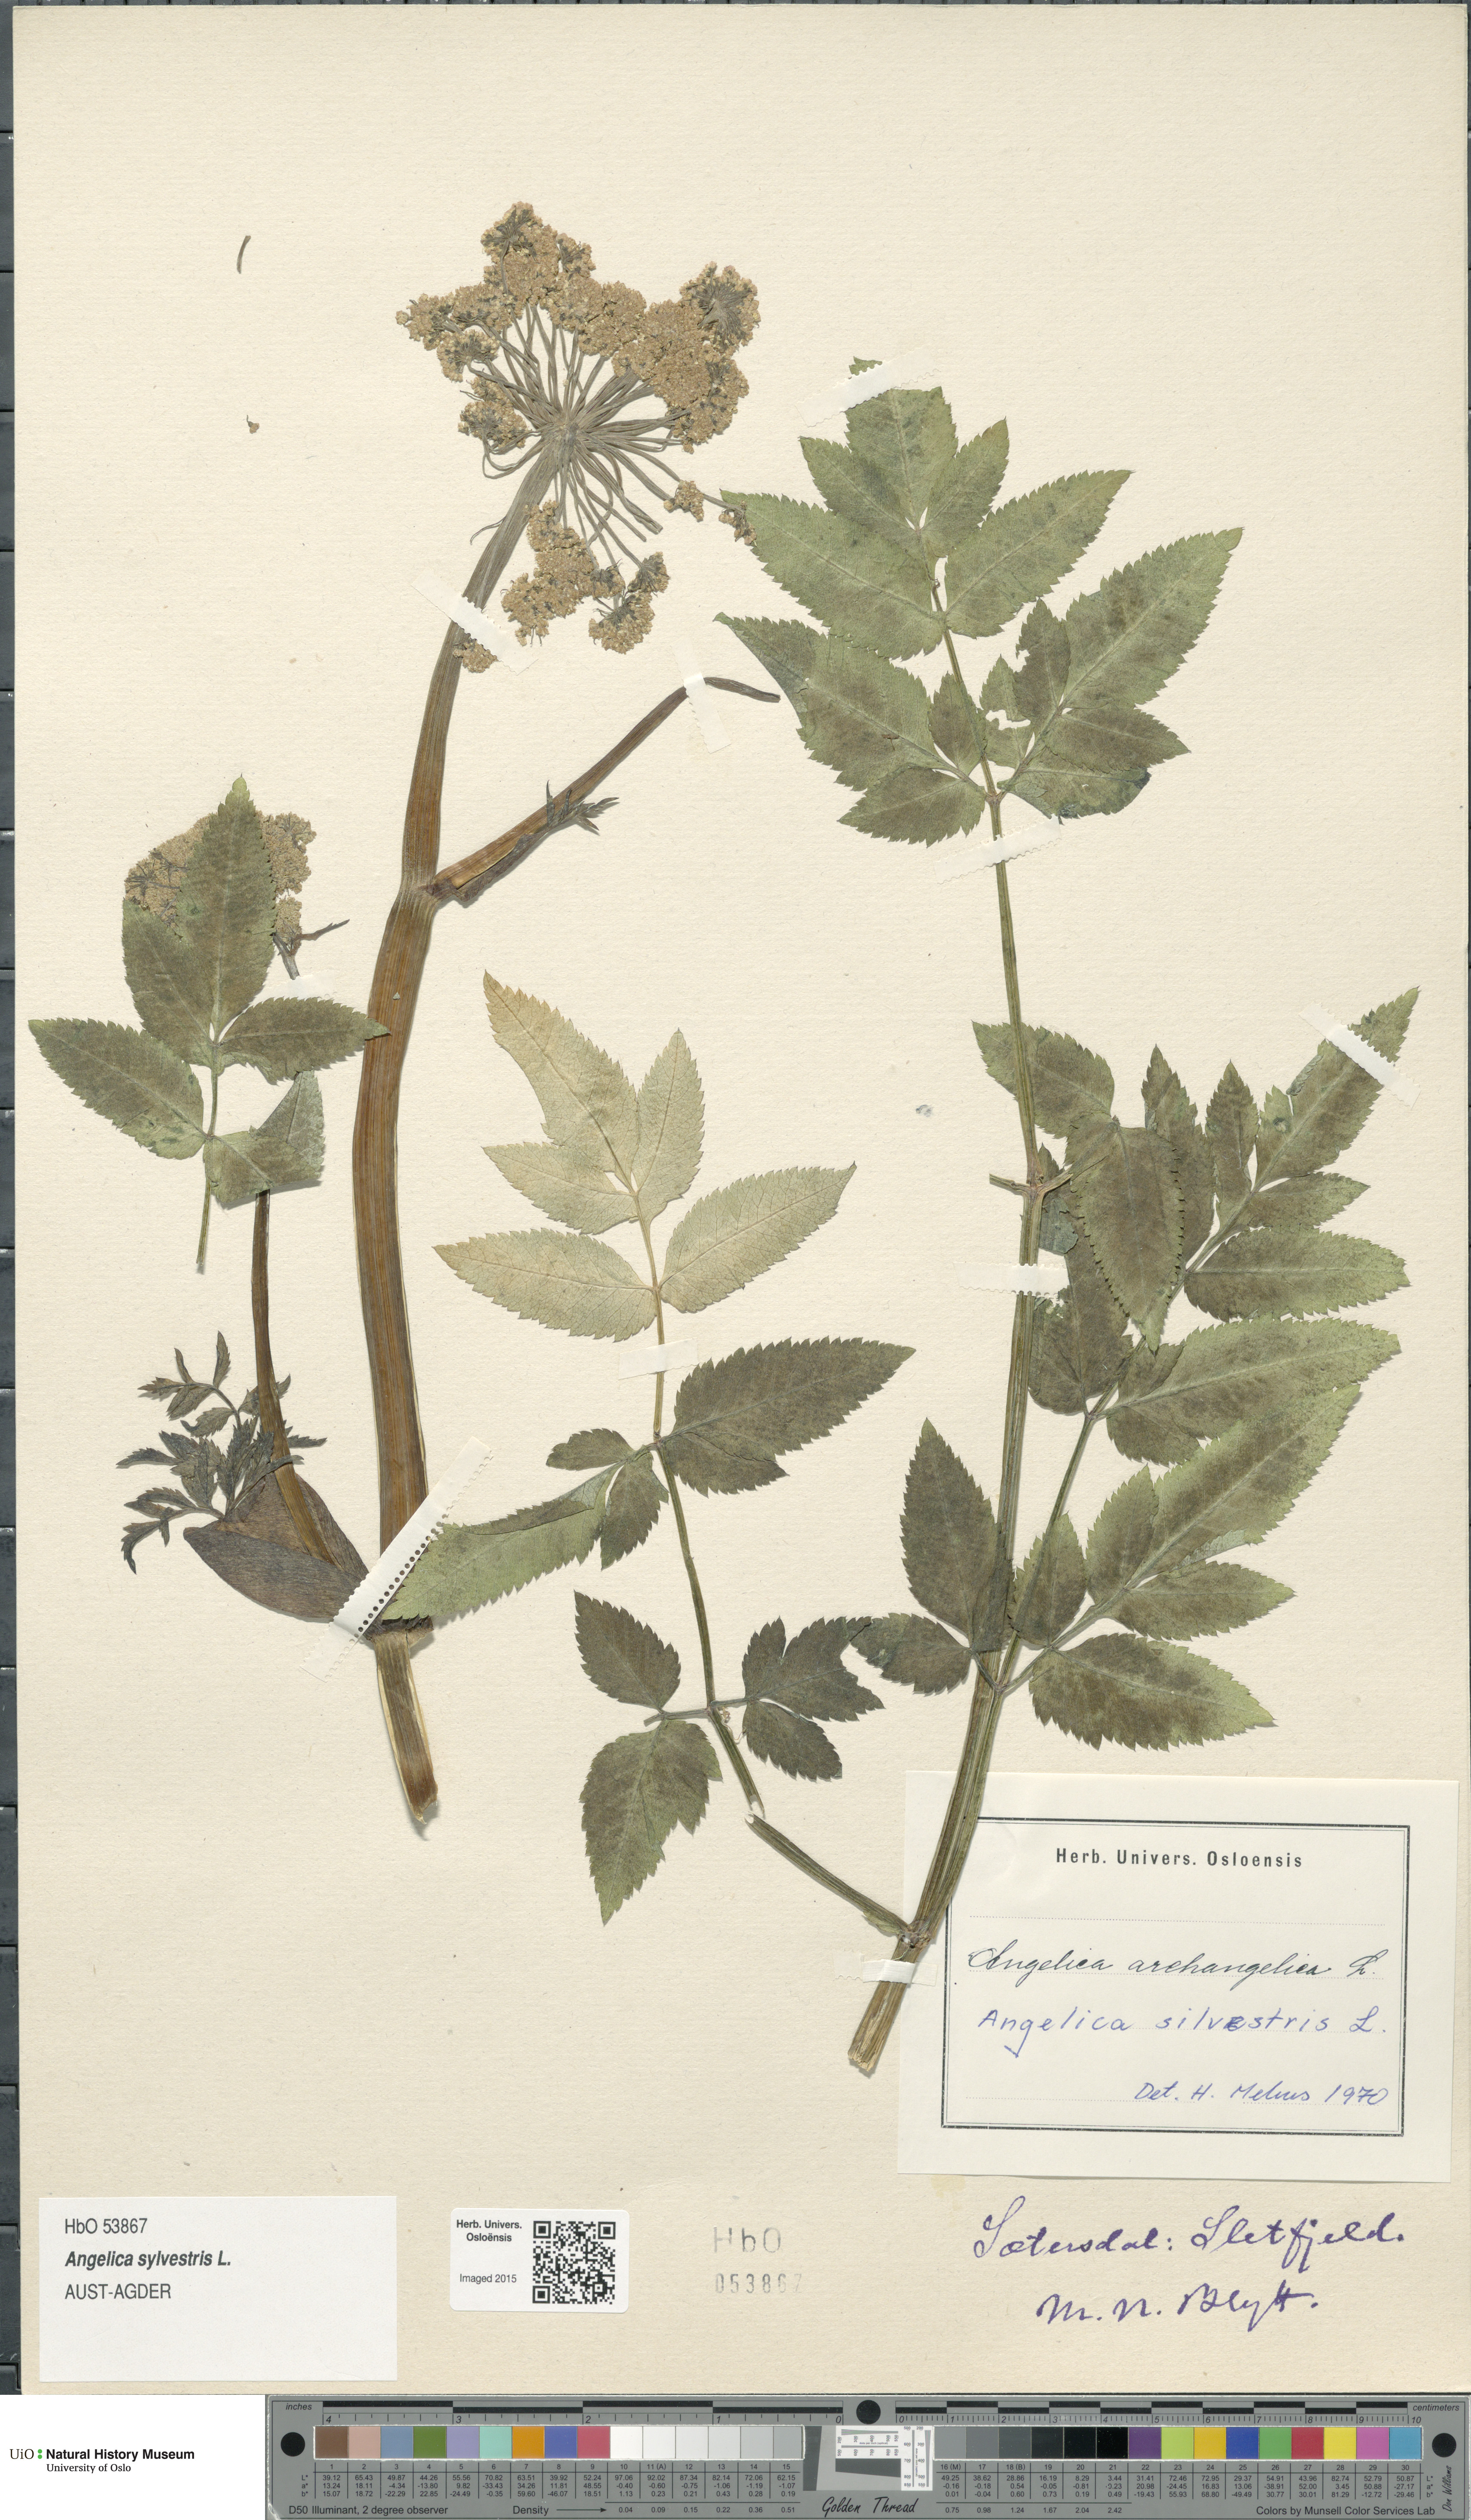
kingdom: Plantae
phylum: Tracheophyta
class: Magnoliopsida
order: Apiales
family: Apiaceae
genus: Angelica
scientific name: Angelica sylvestris
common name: Wild angelica
